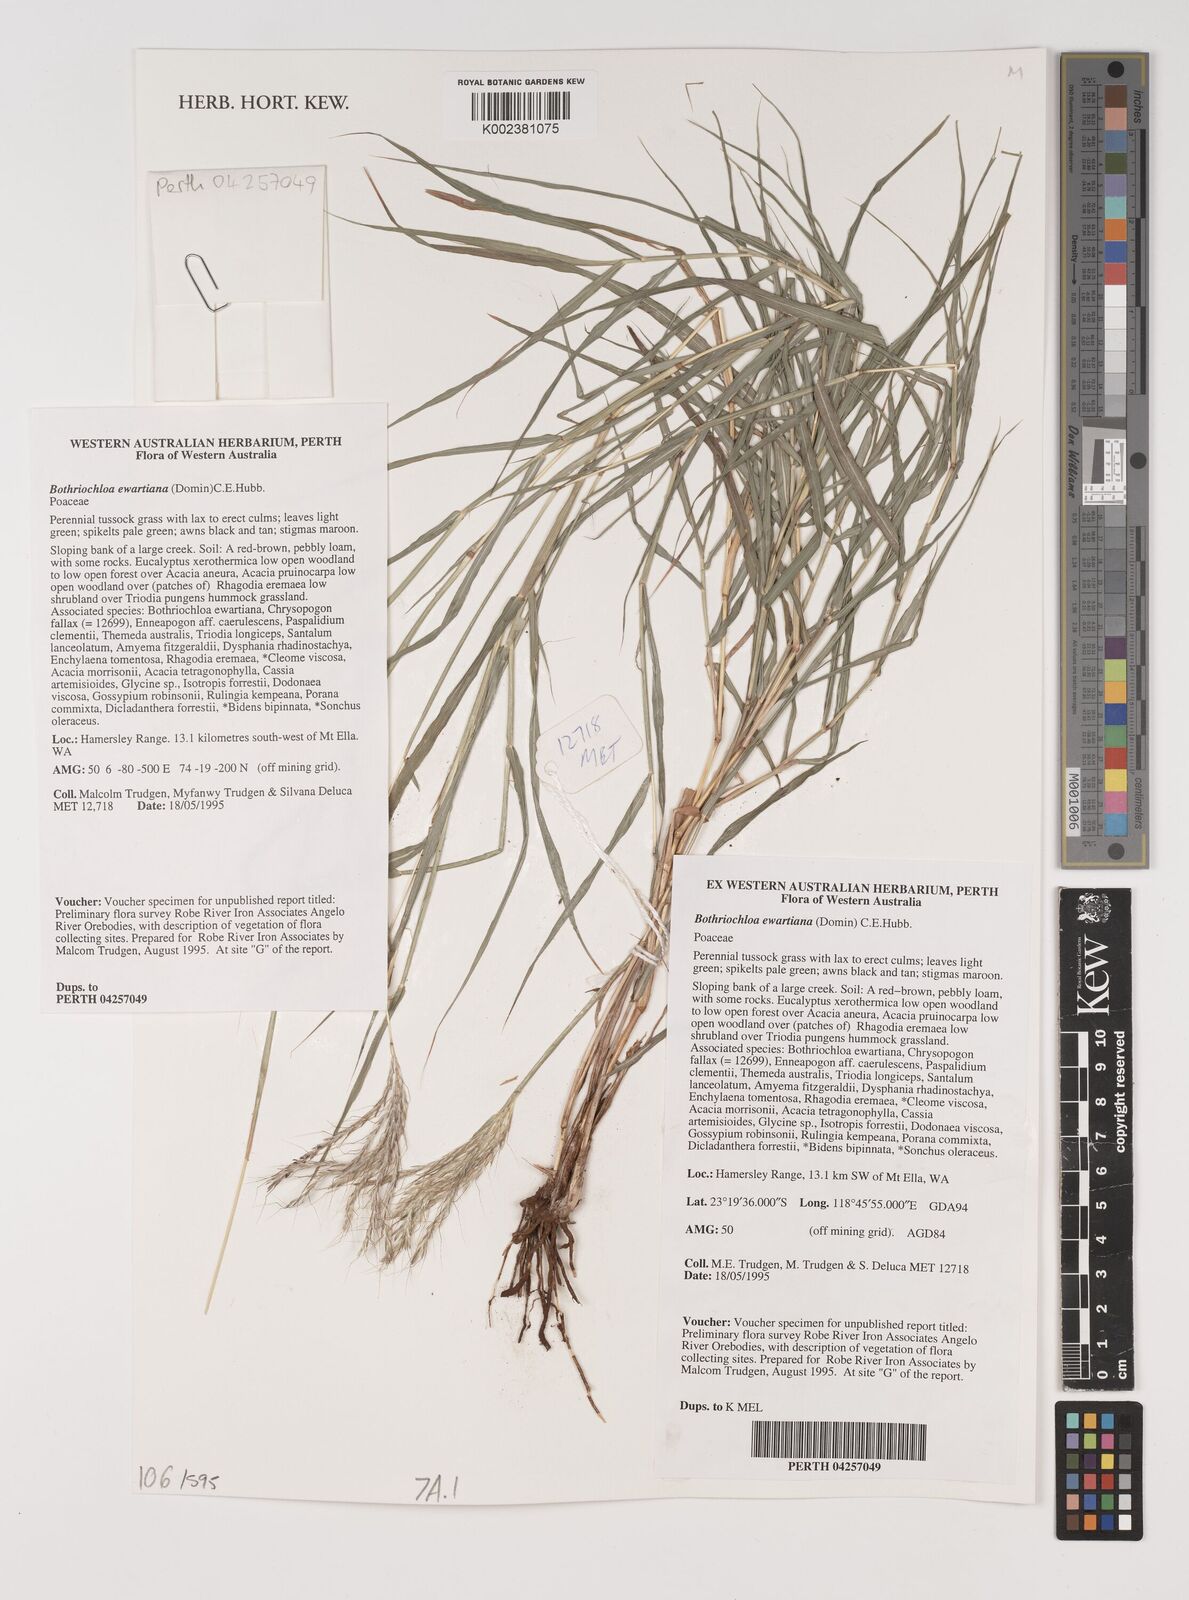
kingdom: Plantae
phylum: Tracheophyta
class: Liliopsida
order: Poales
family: Poaceae
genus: Bothriochloa
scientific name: Bothriochloa ewartiana
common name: Desert-bluegrass
